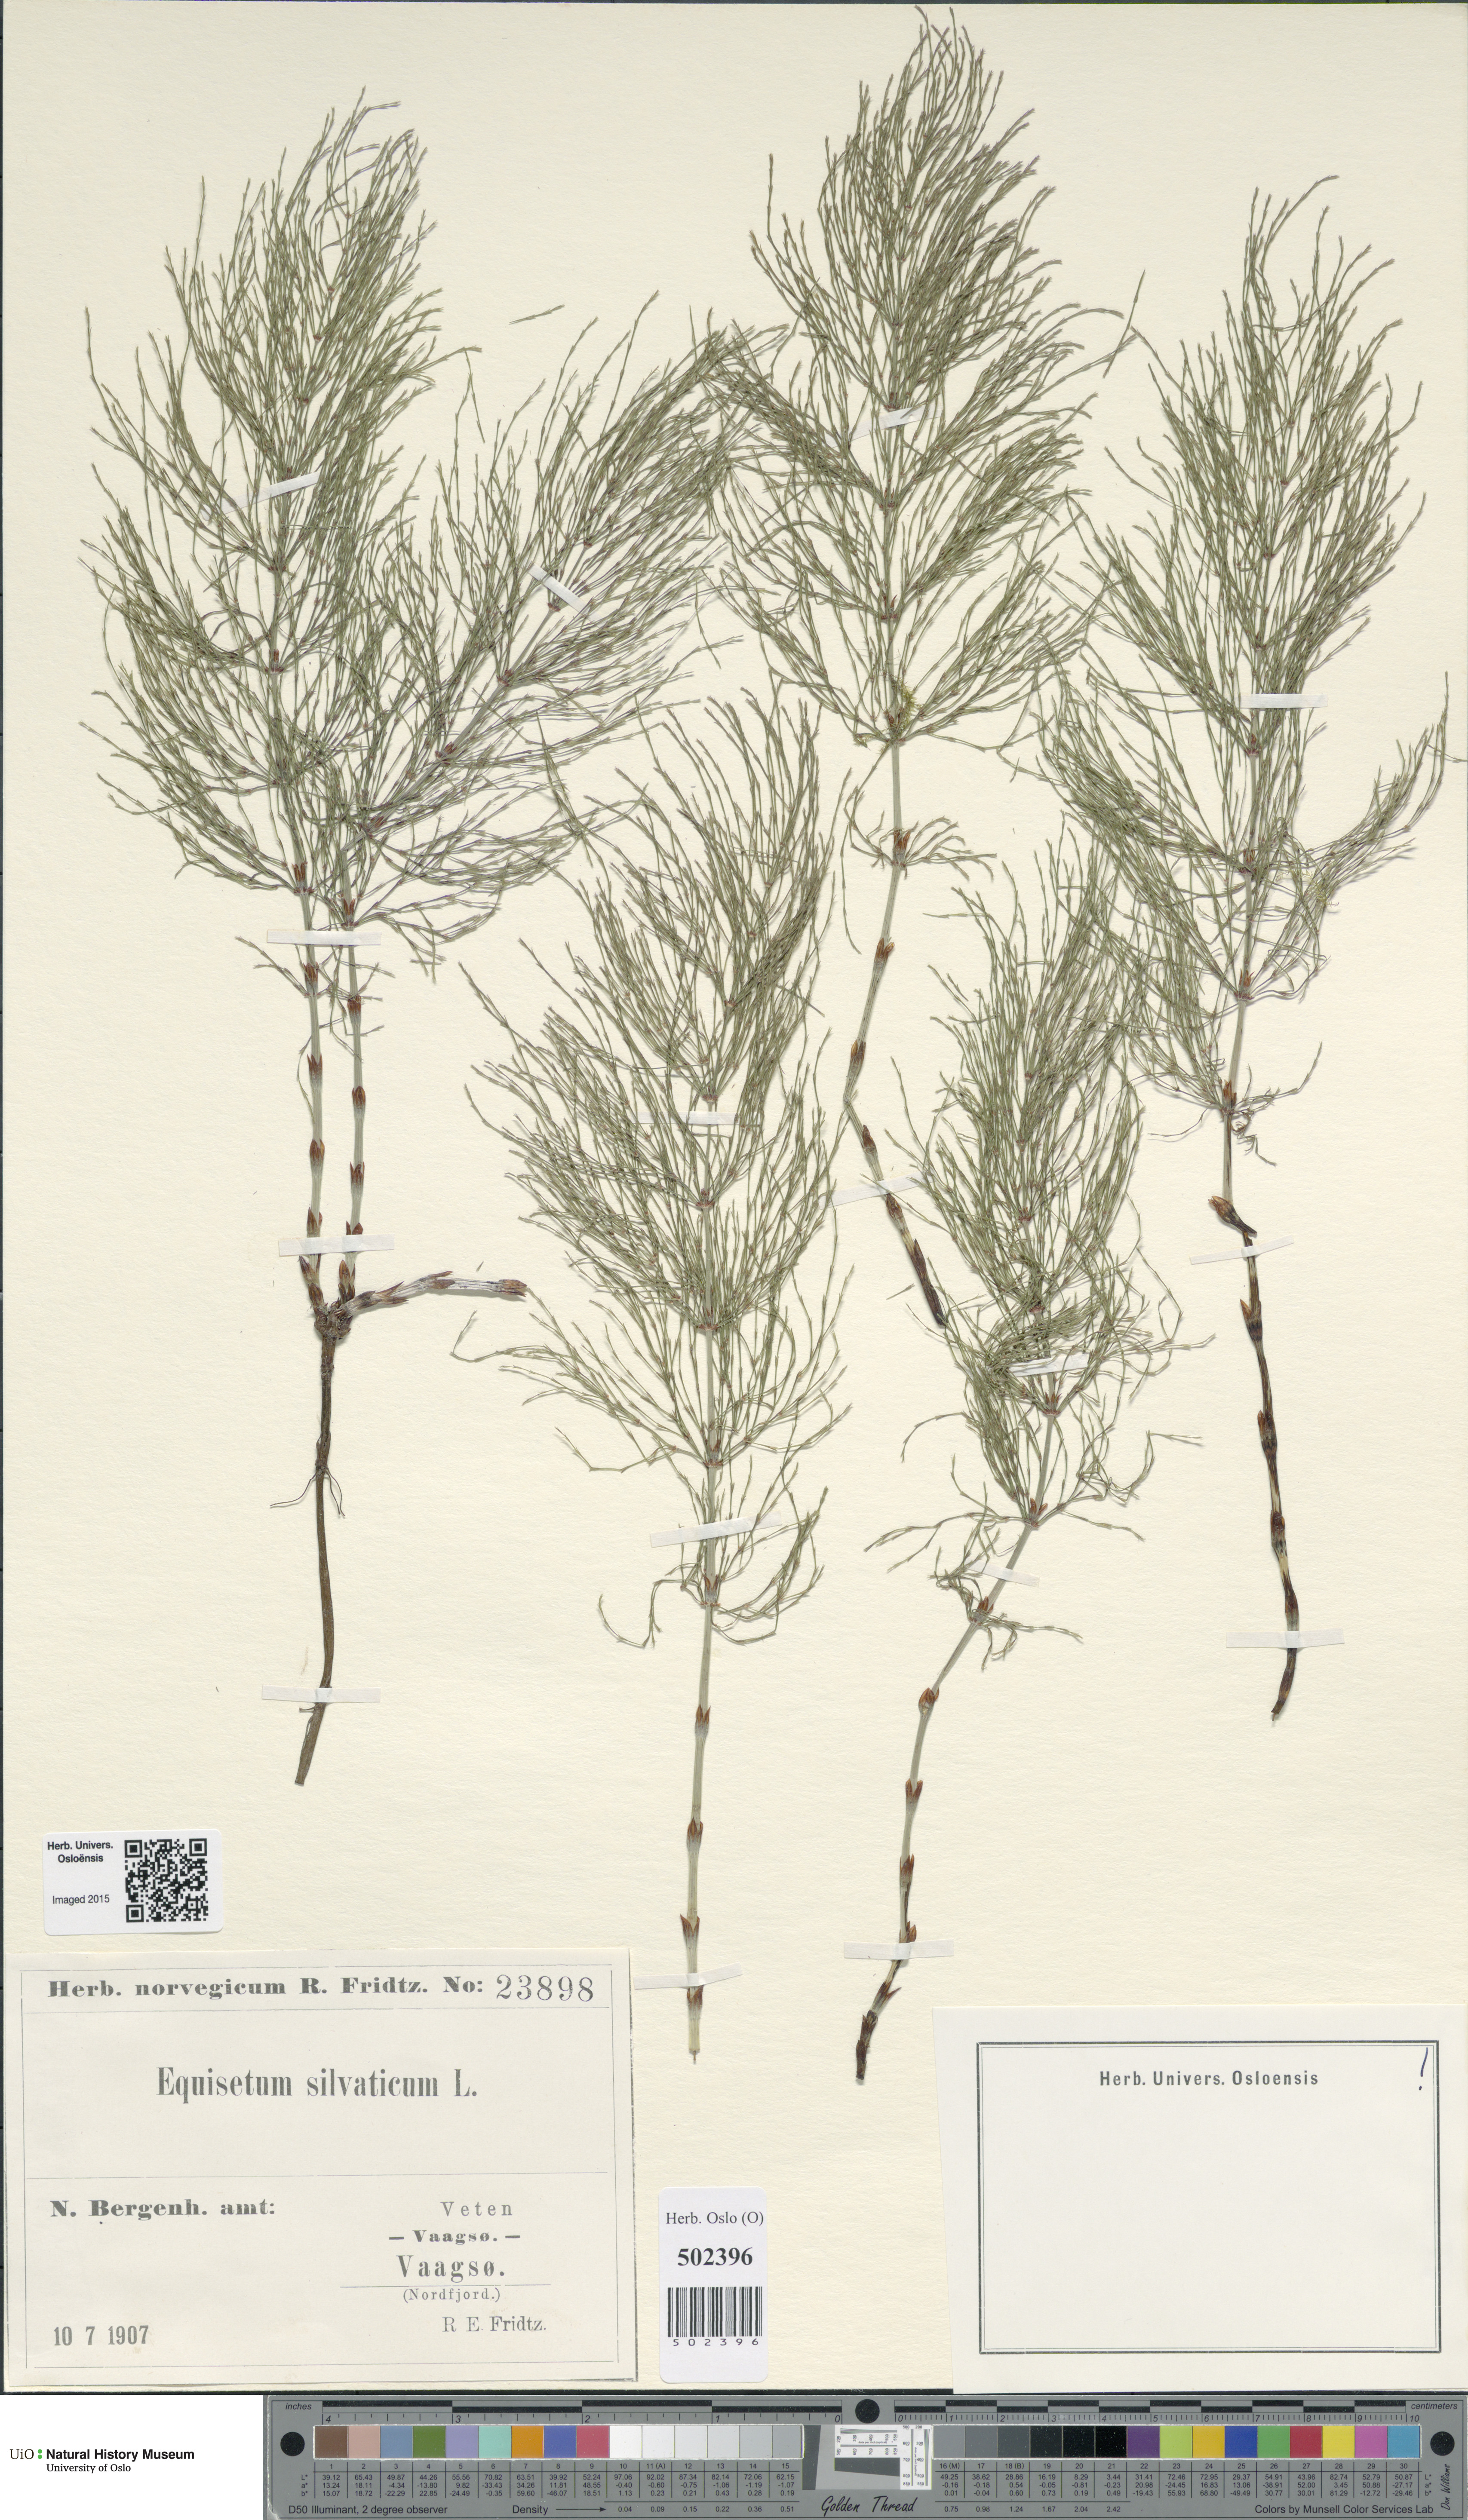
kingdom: Plantae
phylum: Tracheophyta
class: Polypodiopsida
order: Equisetales
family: Equisetaceae
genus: Equisetum
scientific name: Equisetum sylvaticum
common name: Wood horsetail
